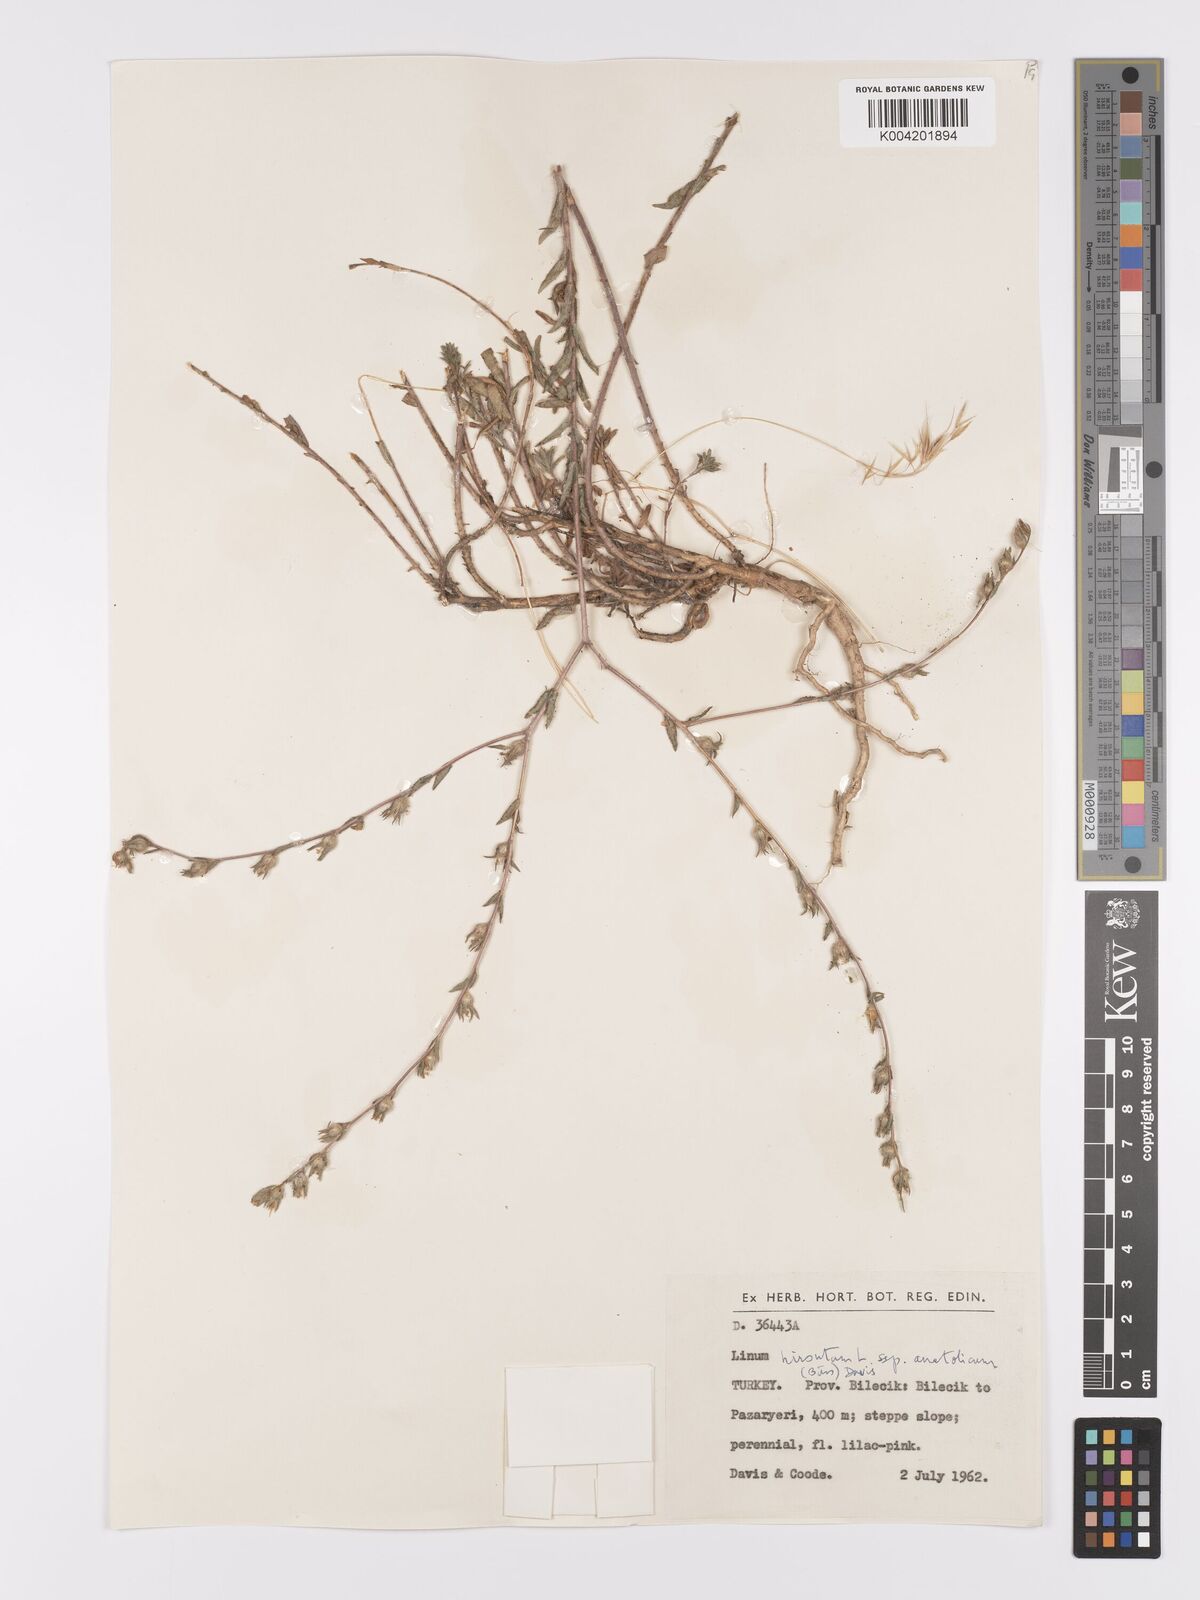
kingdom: Plantae
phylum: Tracheophyta
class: Magnoliopsida
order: Malpighiales
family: Linaceae
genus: Linum
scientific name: Linum
